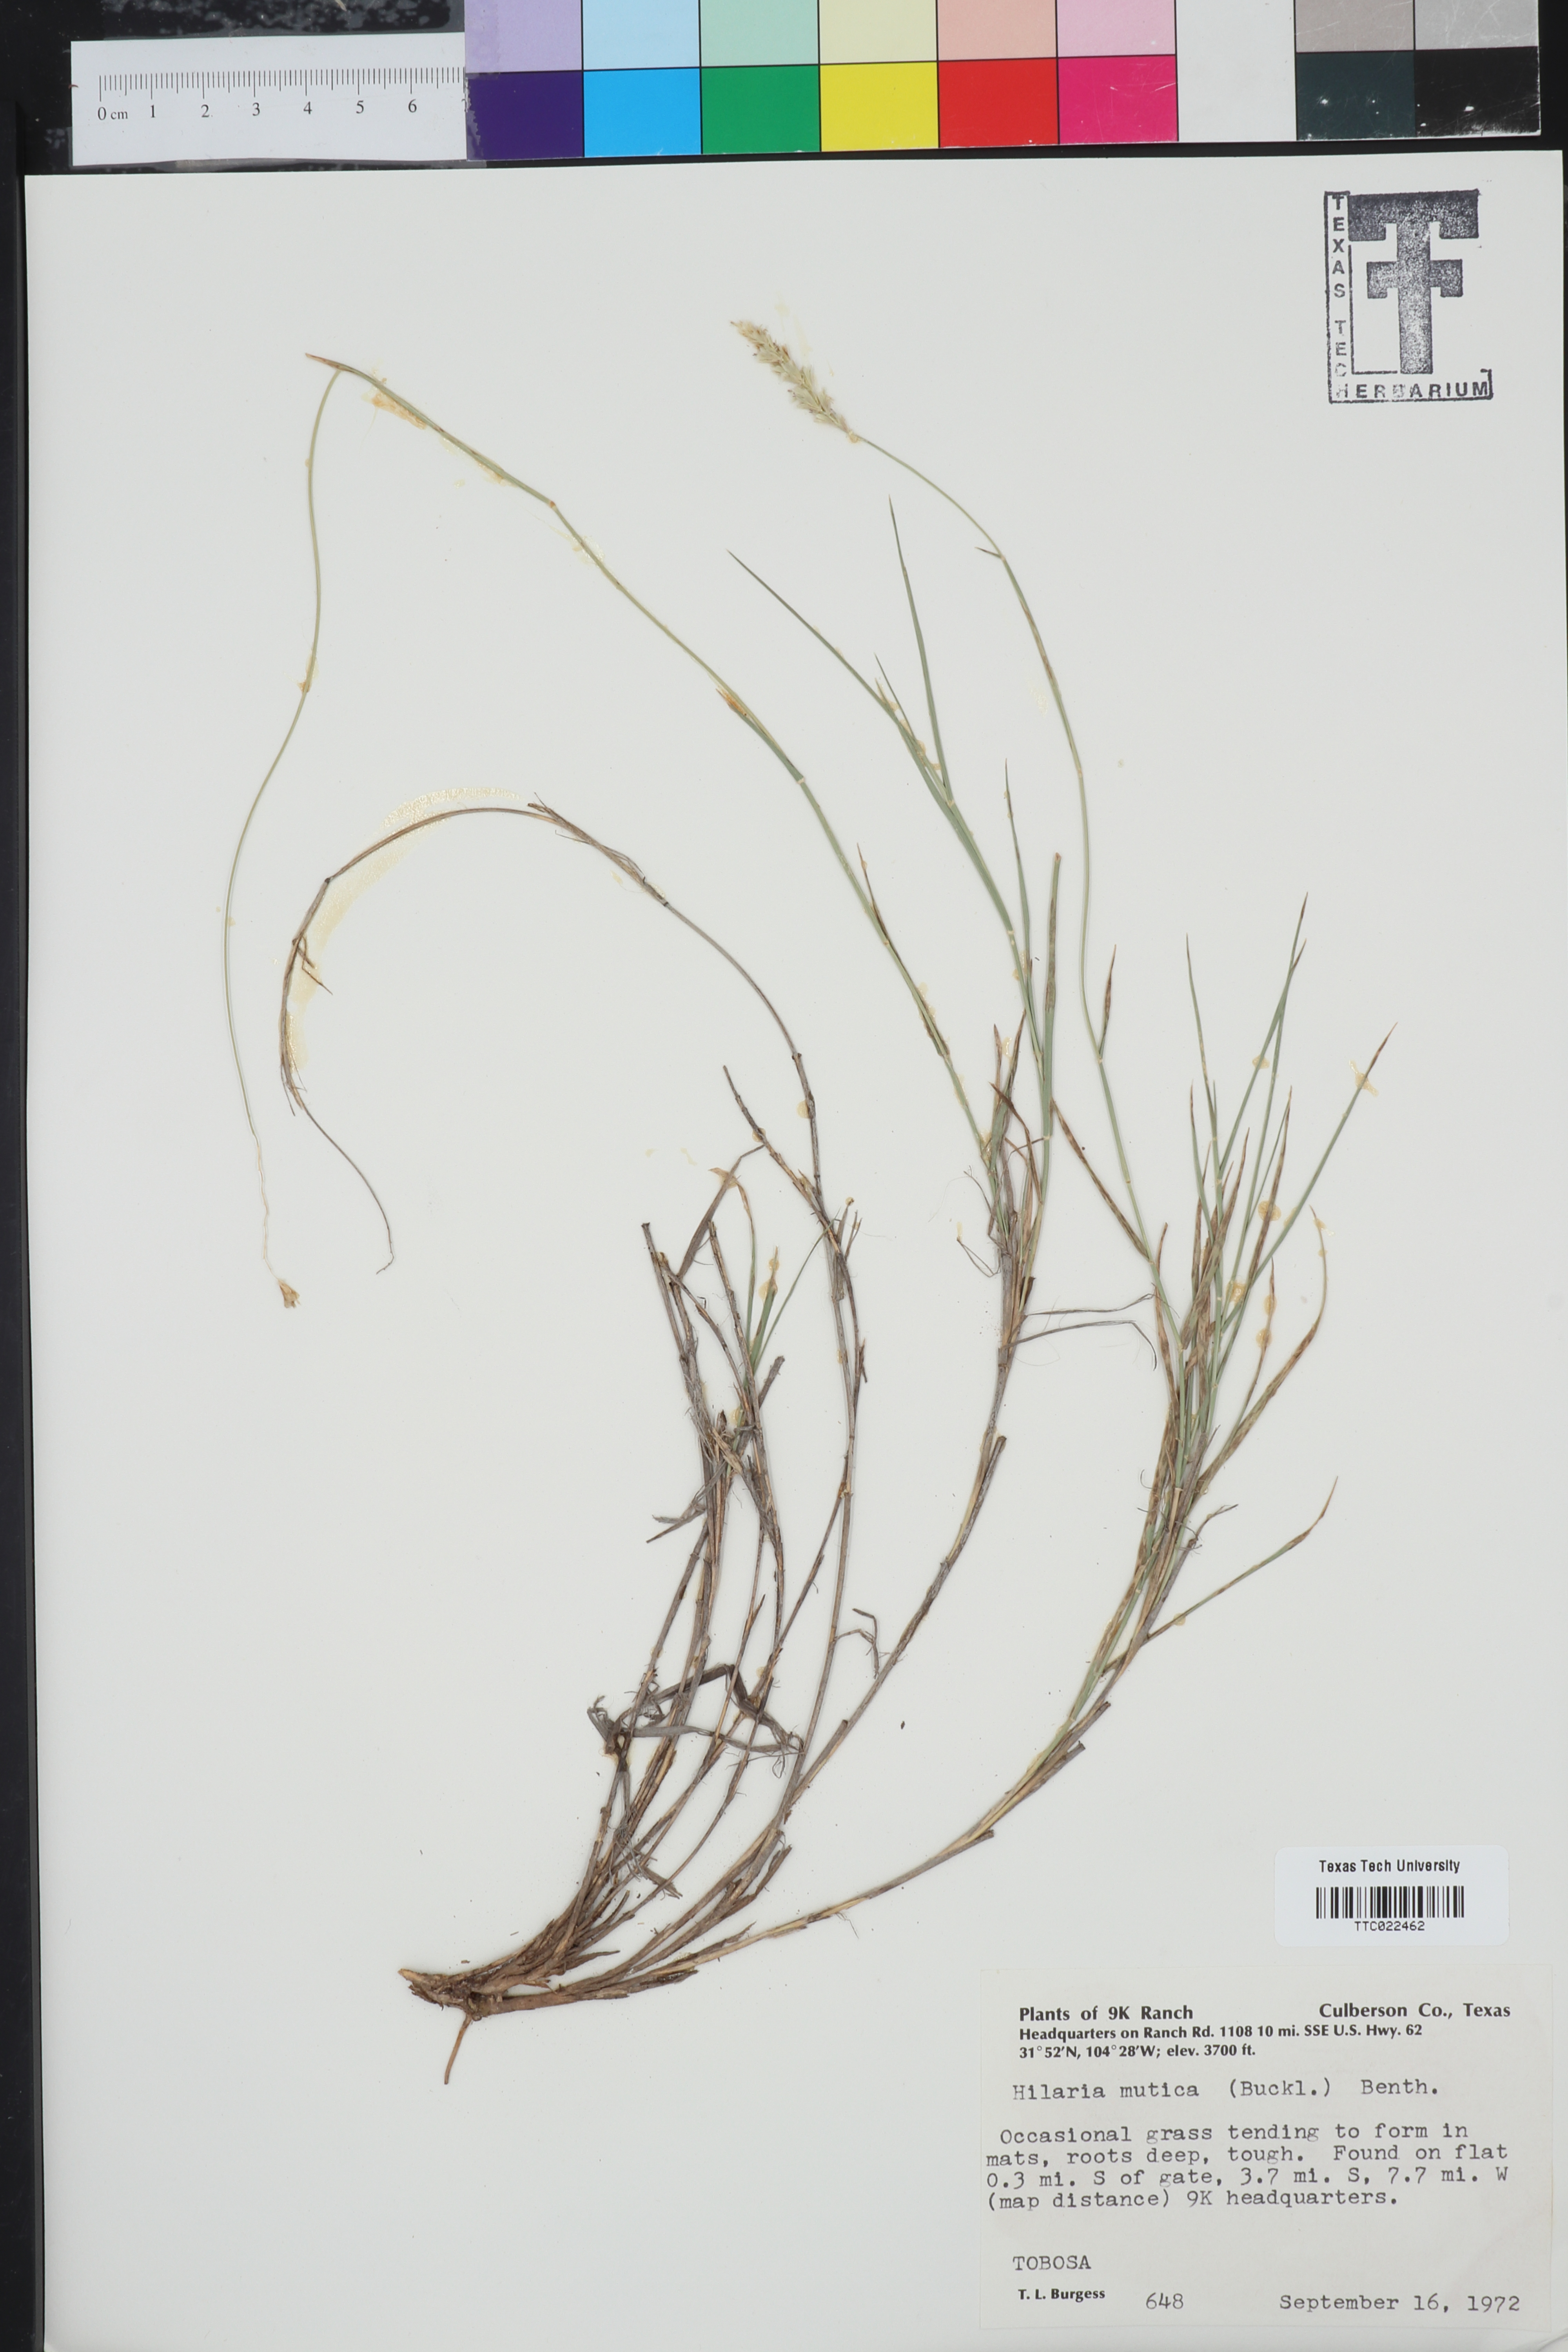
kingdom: Plantae
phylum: Tracheophyta
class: Liliopsida
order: Poales
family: Poaceae
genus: Hilaria
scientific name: Hilaria mutica
